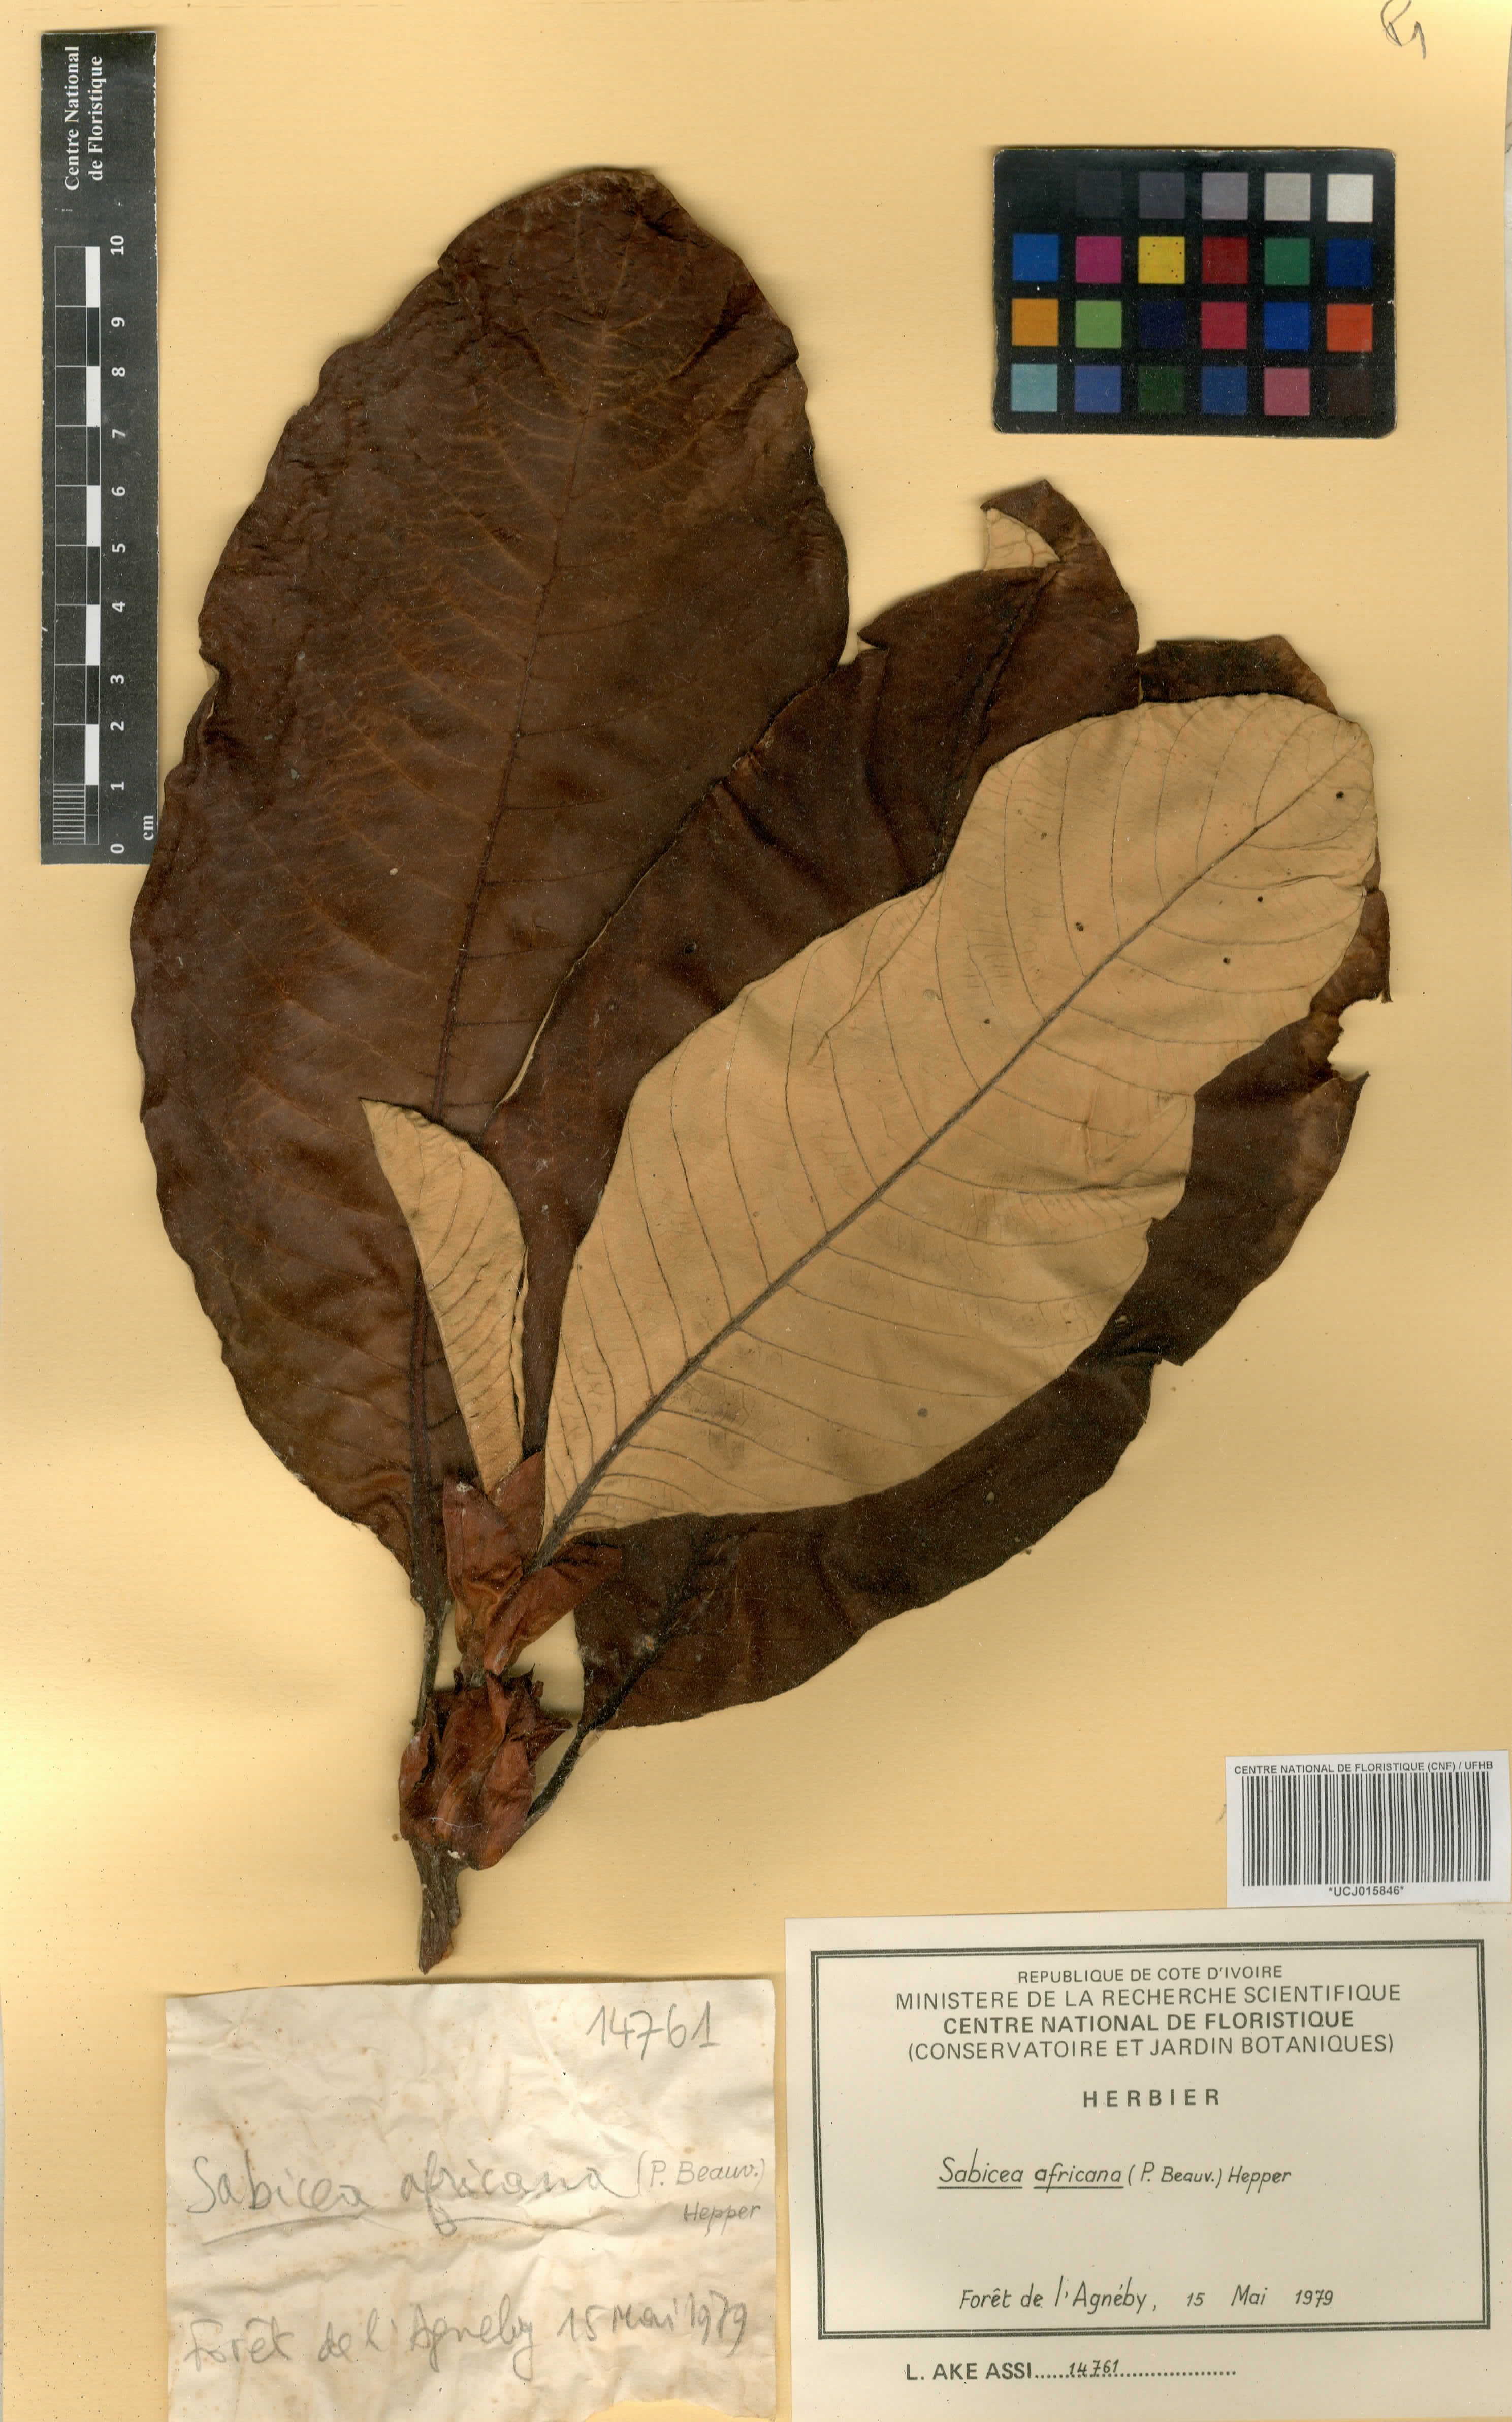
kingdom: Plantae
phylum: Tracheophyta
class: Magnoliopsida
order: Gentianales
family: Rubiaceae
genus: Stipularia
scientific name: Stipularia africana
